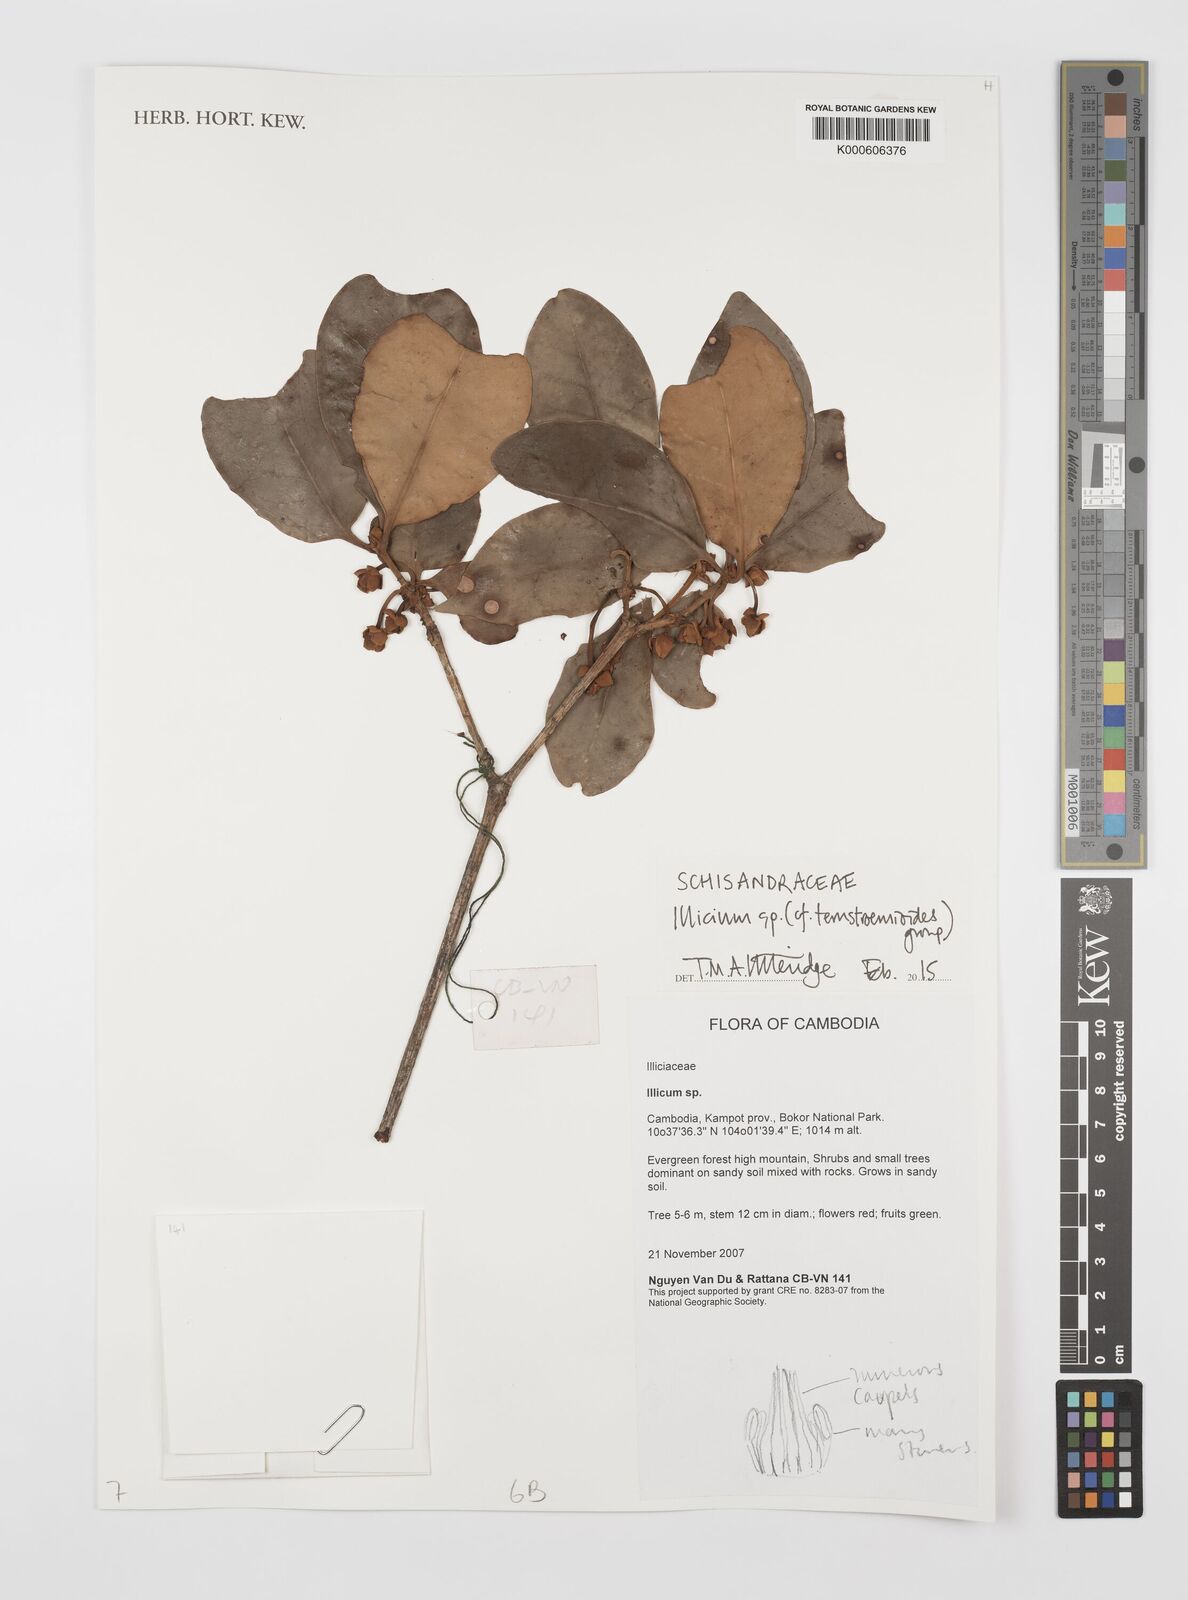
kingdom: Plantae
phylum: Tracheophyta
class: Magnoliopsida
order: Austrobaileyales
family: Schisandraceae
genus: Illicium
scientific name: Illicium
